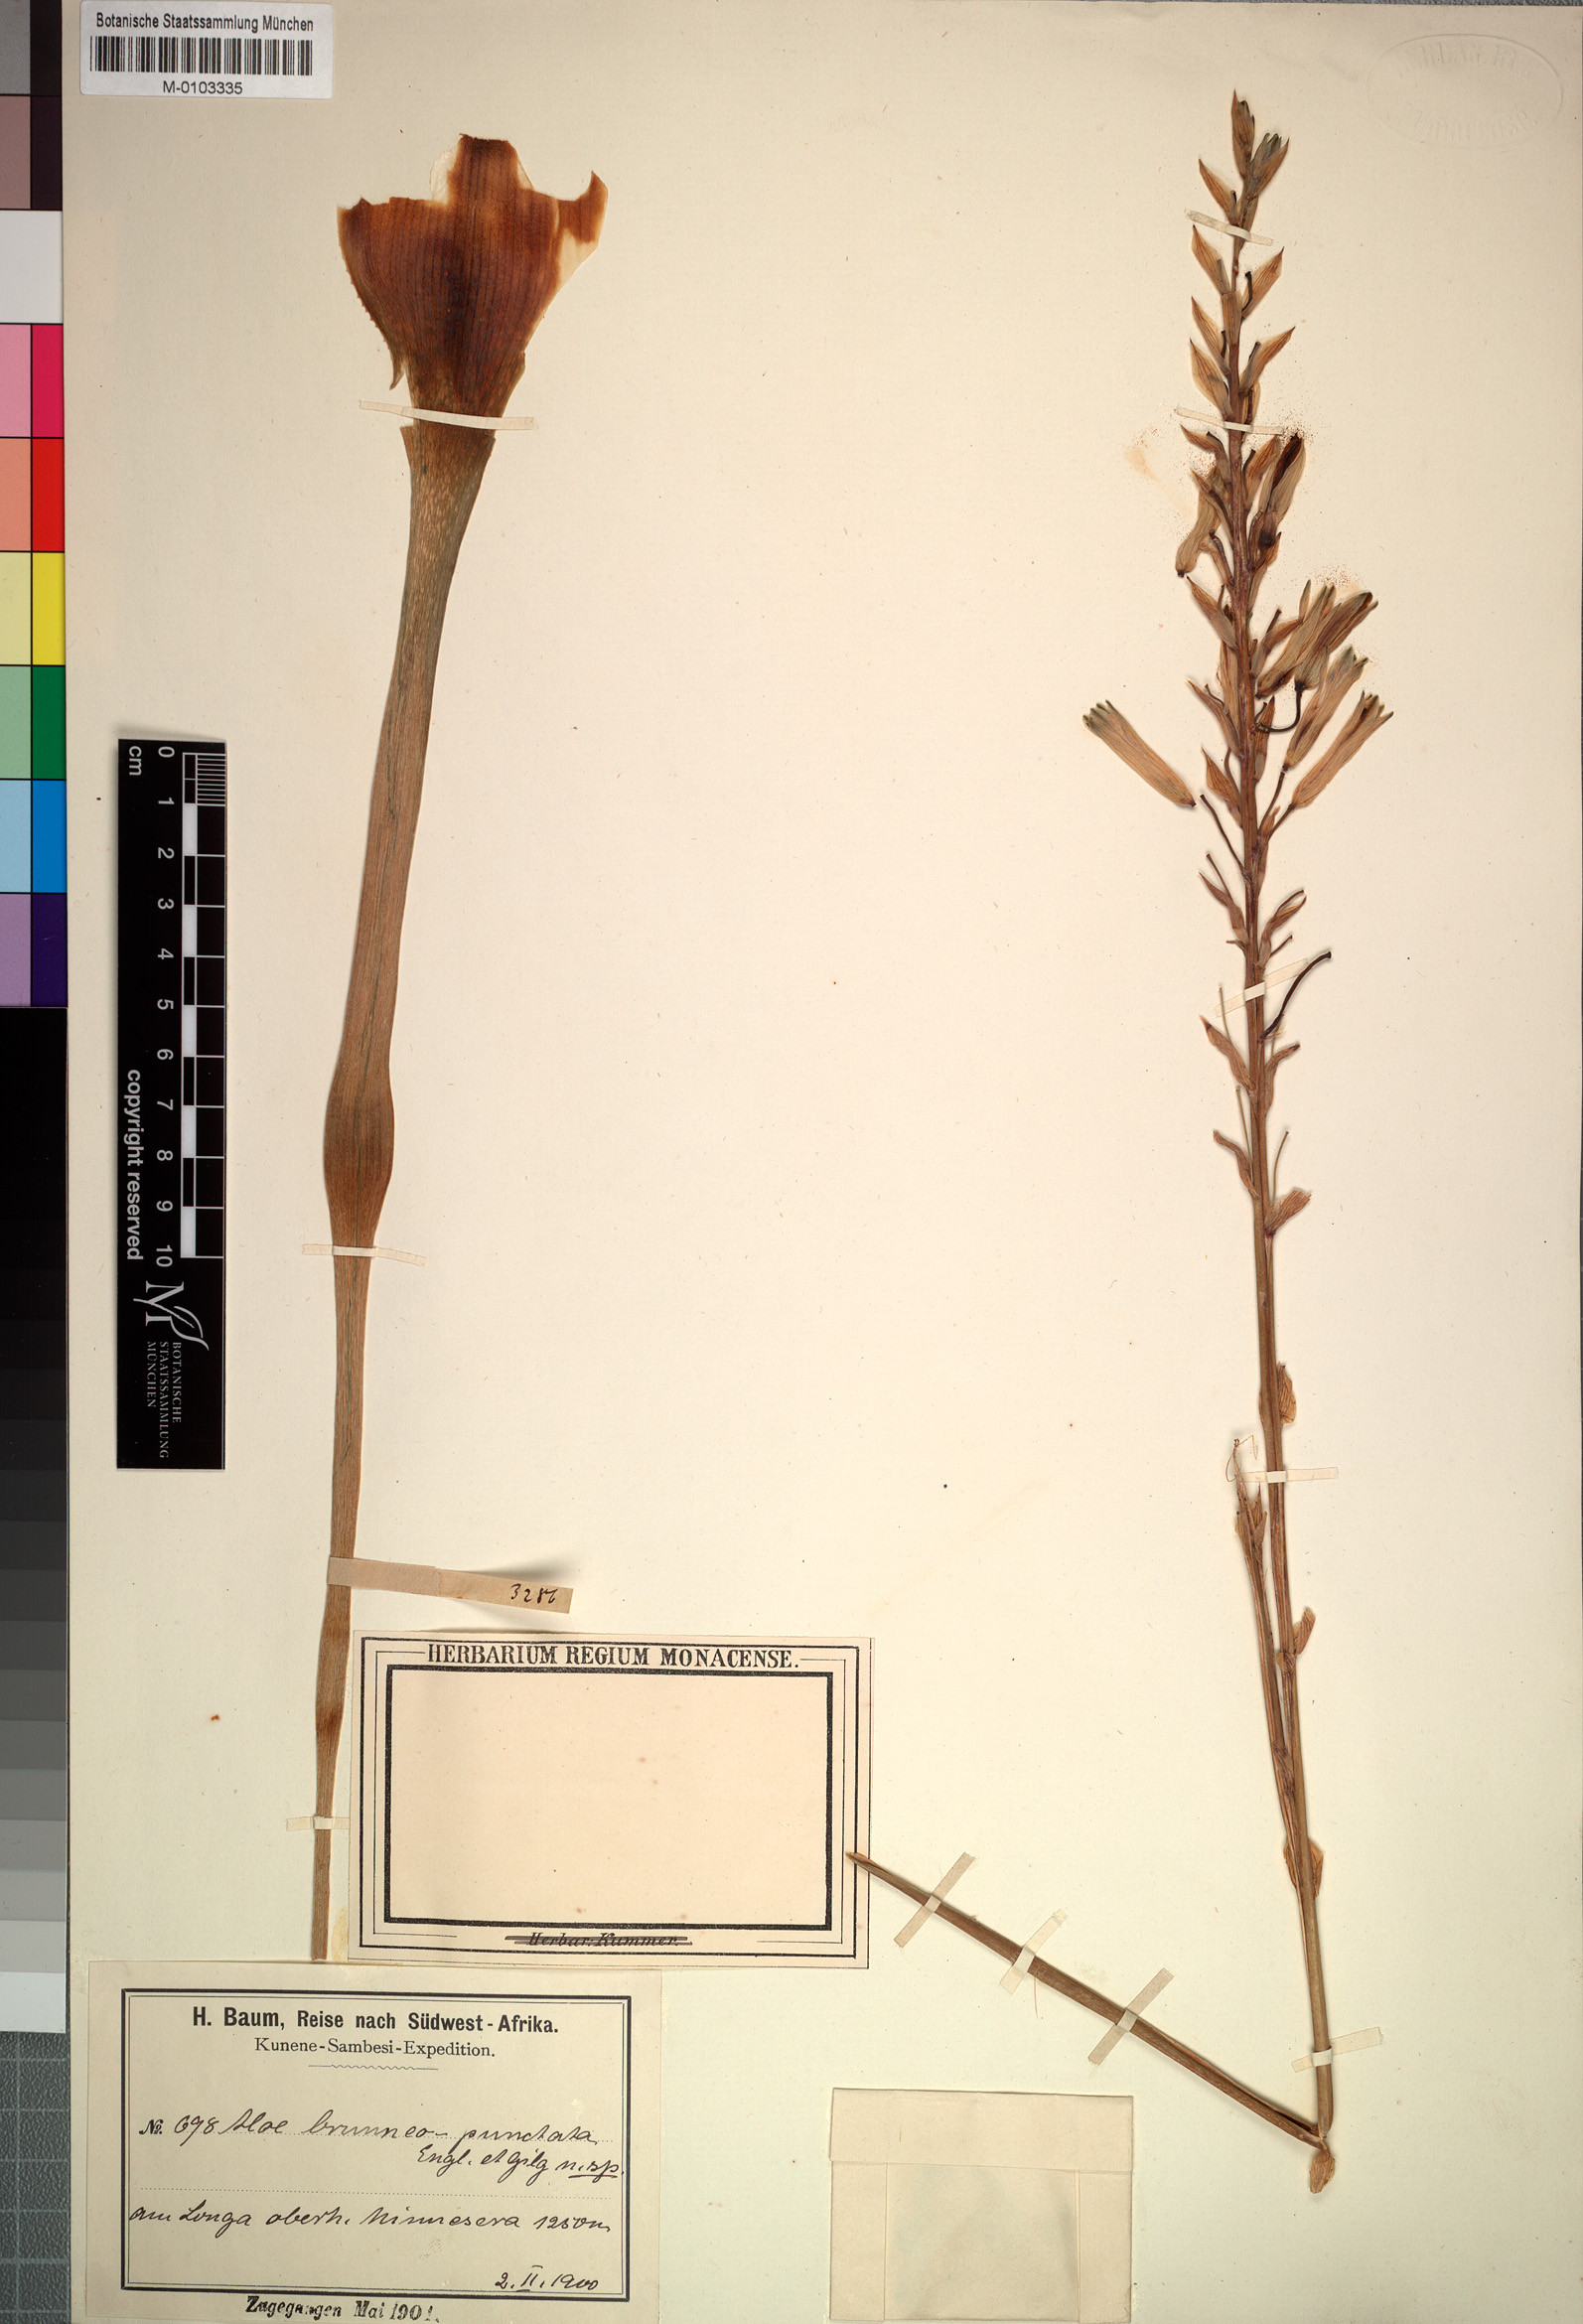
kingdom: Plantae
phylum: Tracheophyta
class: Liliopsida
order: Asparagales
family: Asphodelaceae
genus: Aloe
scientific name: Aloe nuttii
